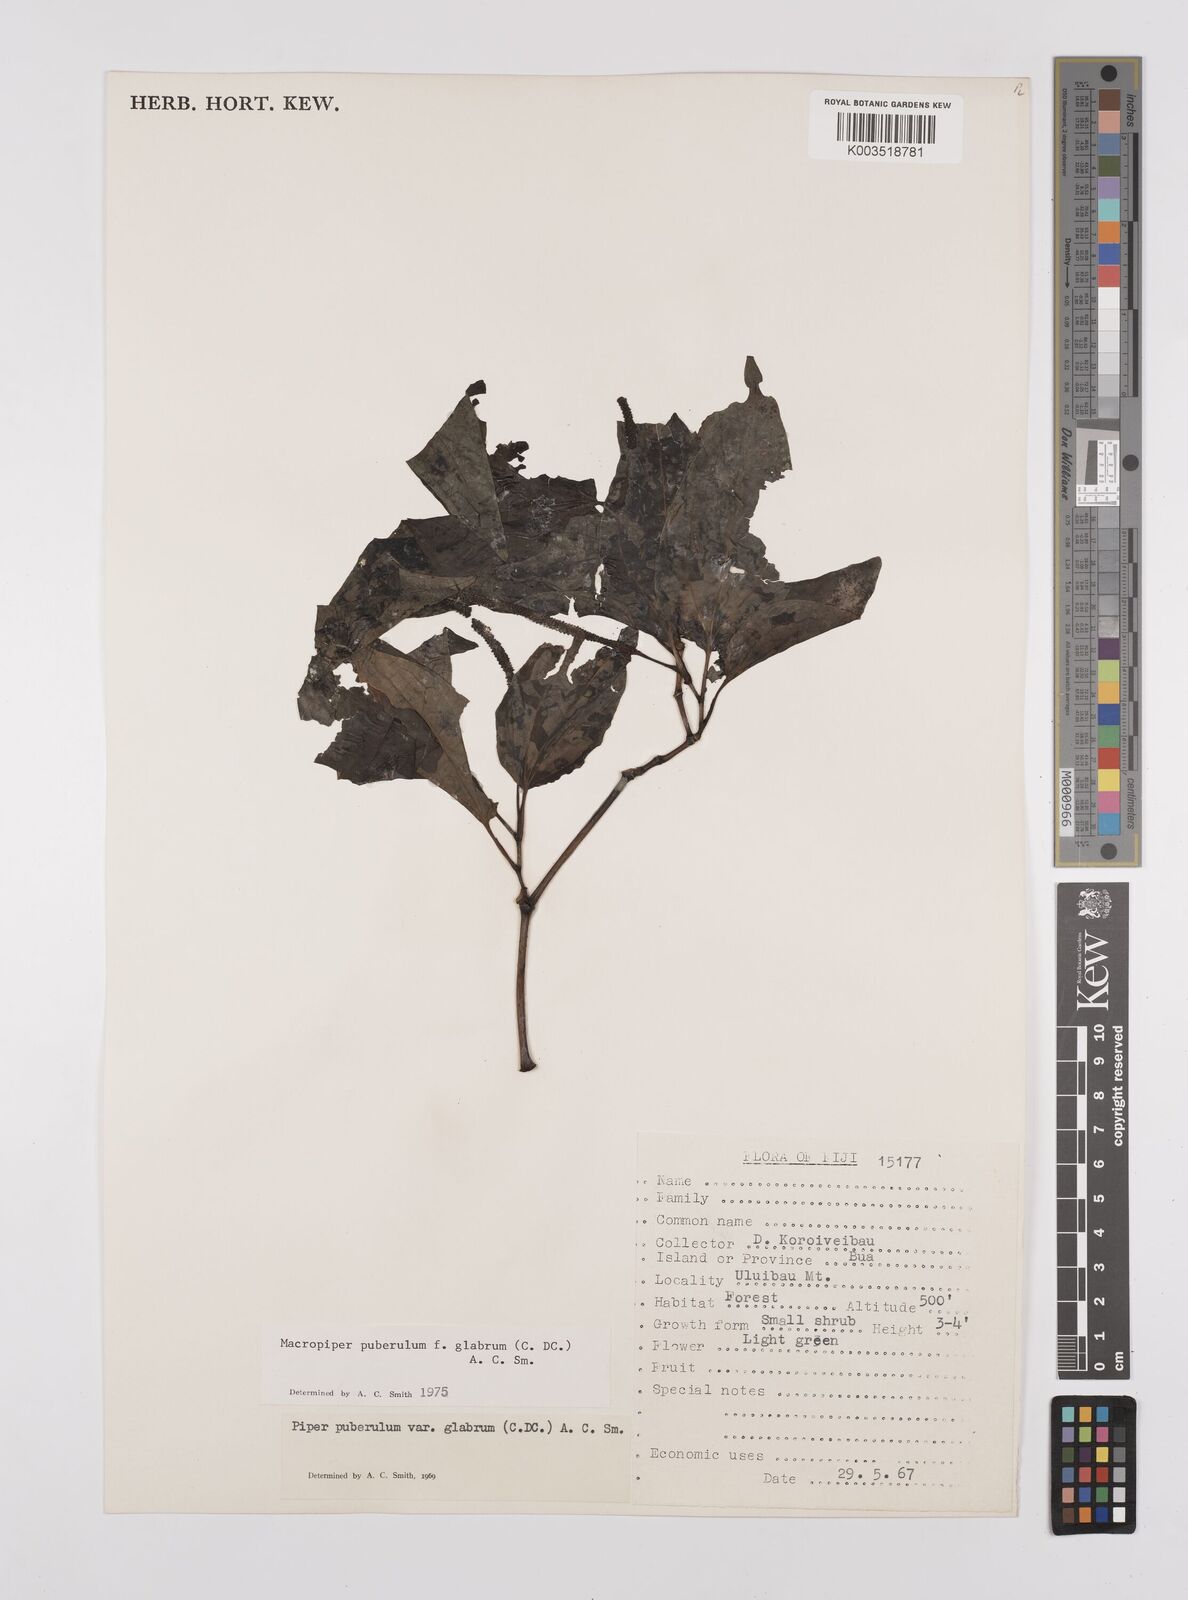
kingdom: Plantae
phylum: Tracheophyta
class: Magnoliopsida
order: Piperales
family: Piperaceae
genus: Macropiper
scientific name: Macropiper puberulum
